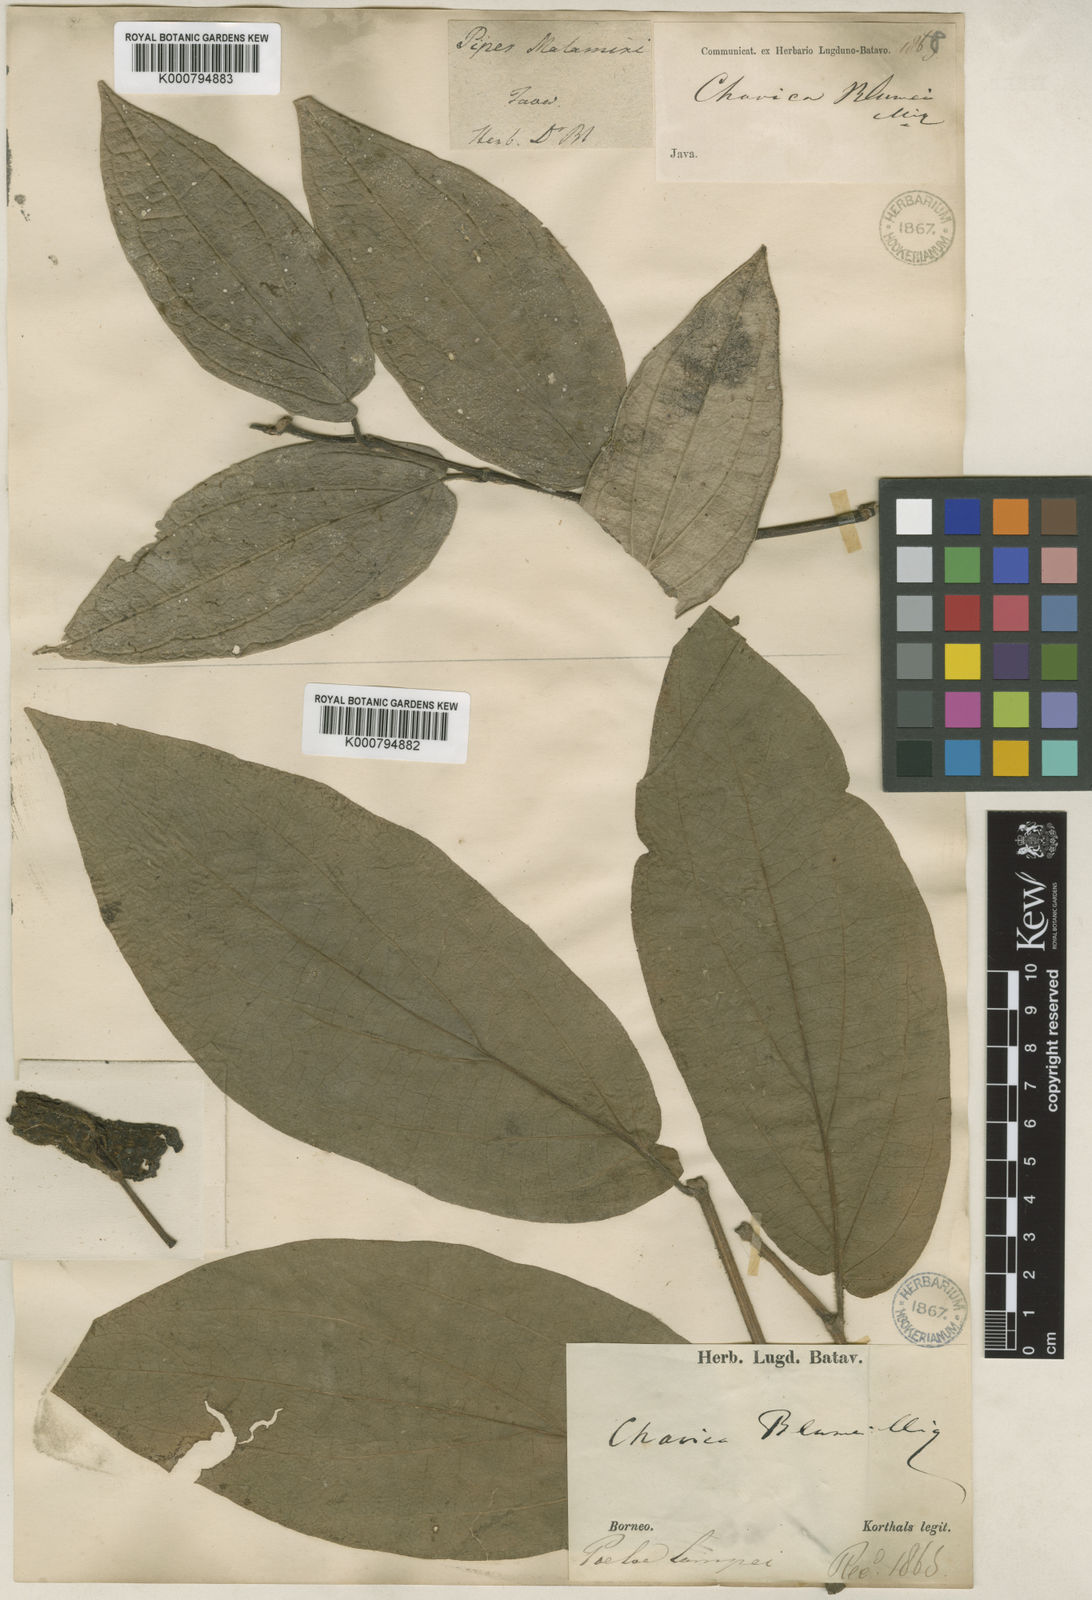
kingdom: Plantae
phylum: Tracheophyta
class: Magnoliopsida
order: Piperales
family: Piperaceae
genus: Piper
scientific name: Piper betle
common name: Betel pepper
